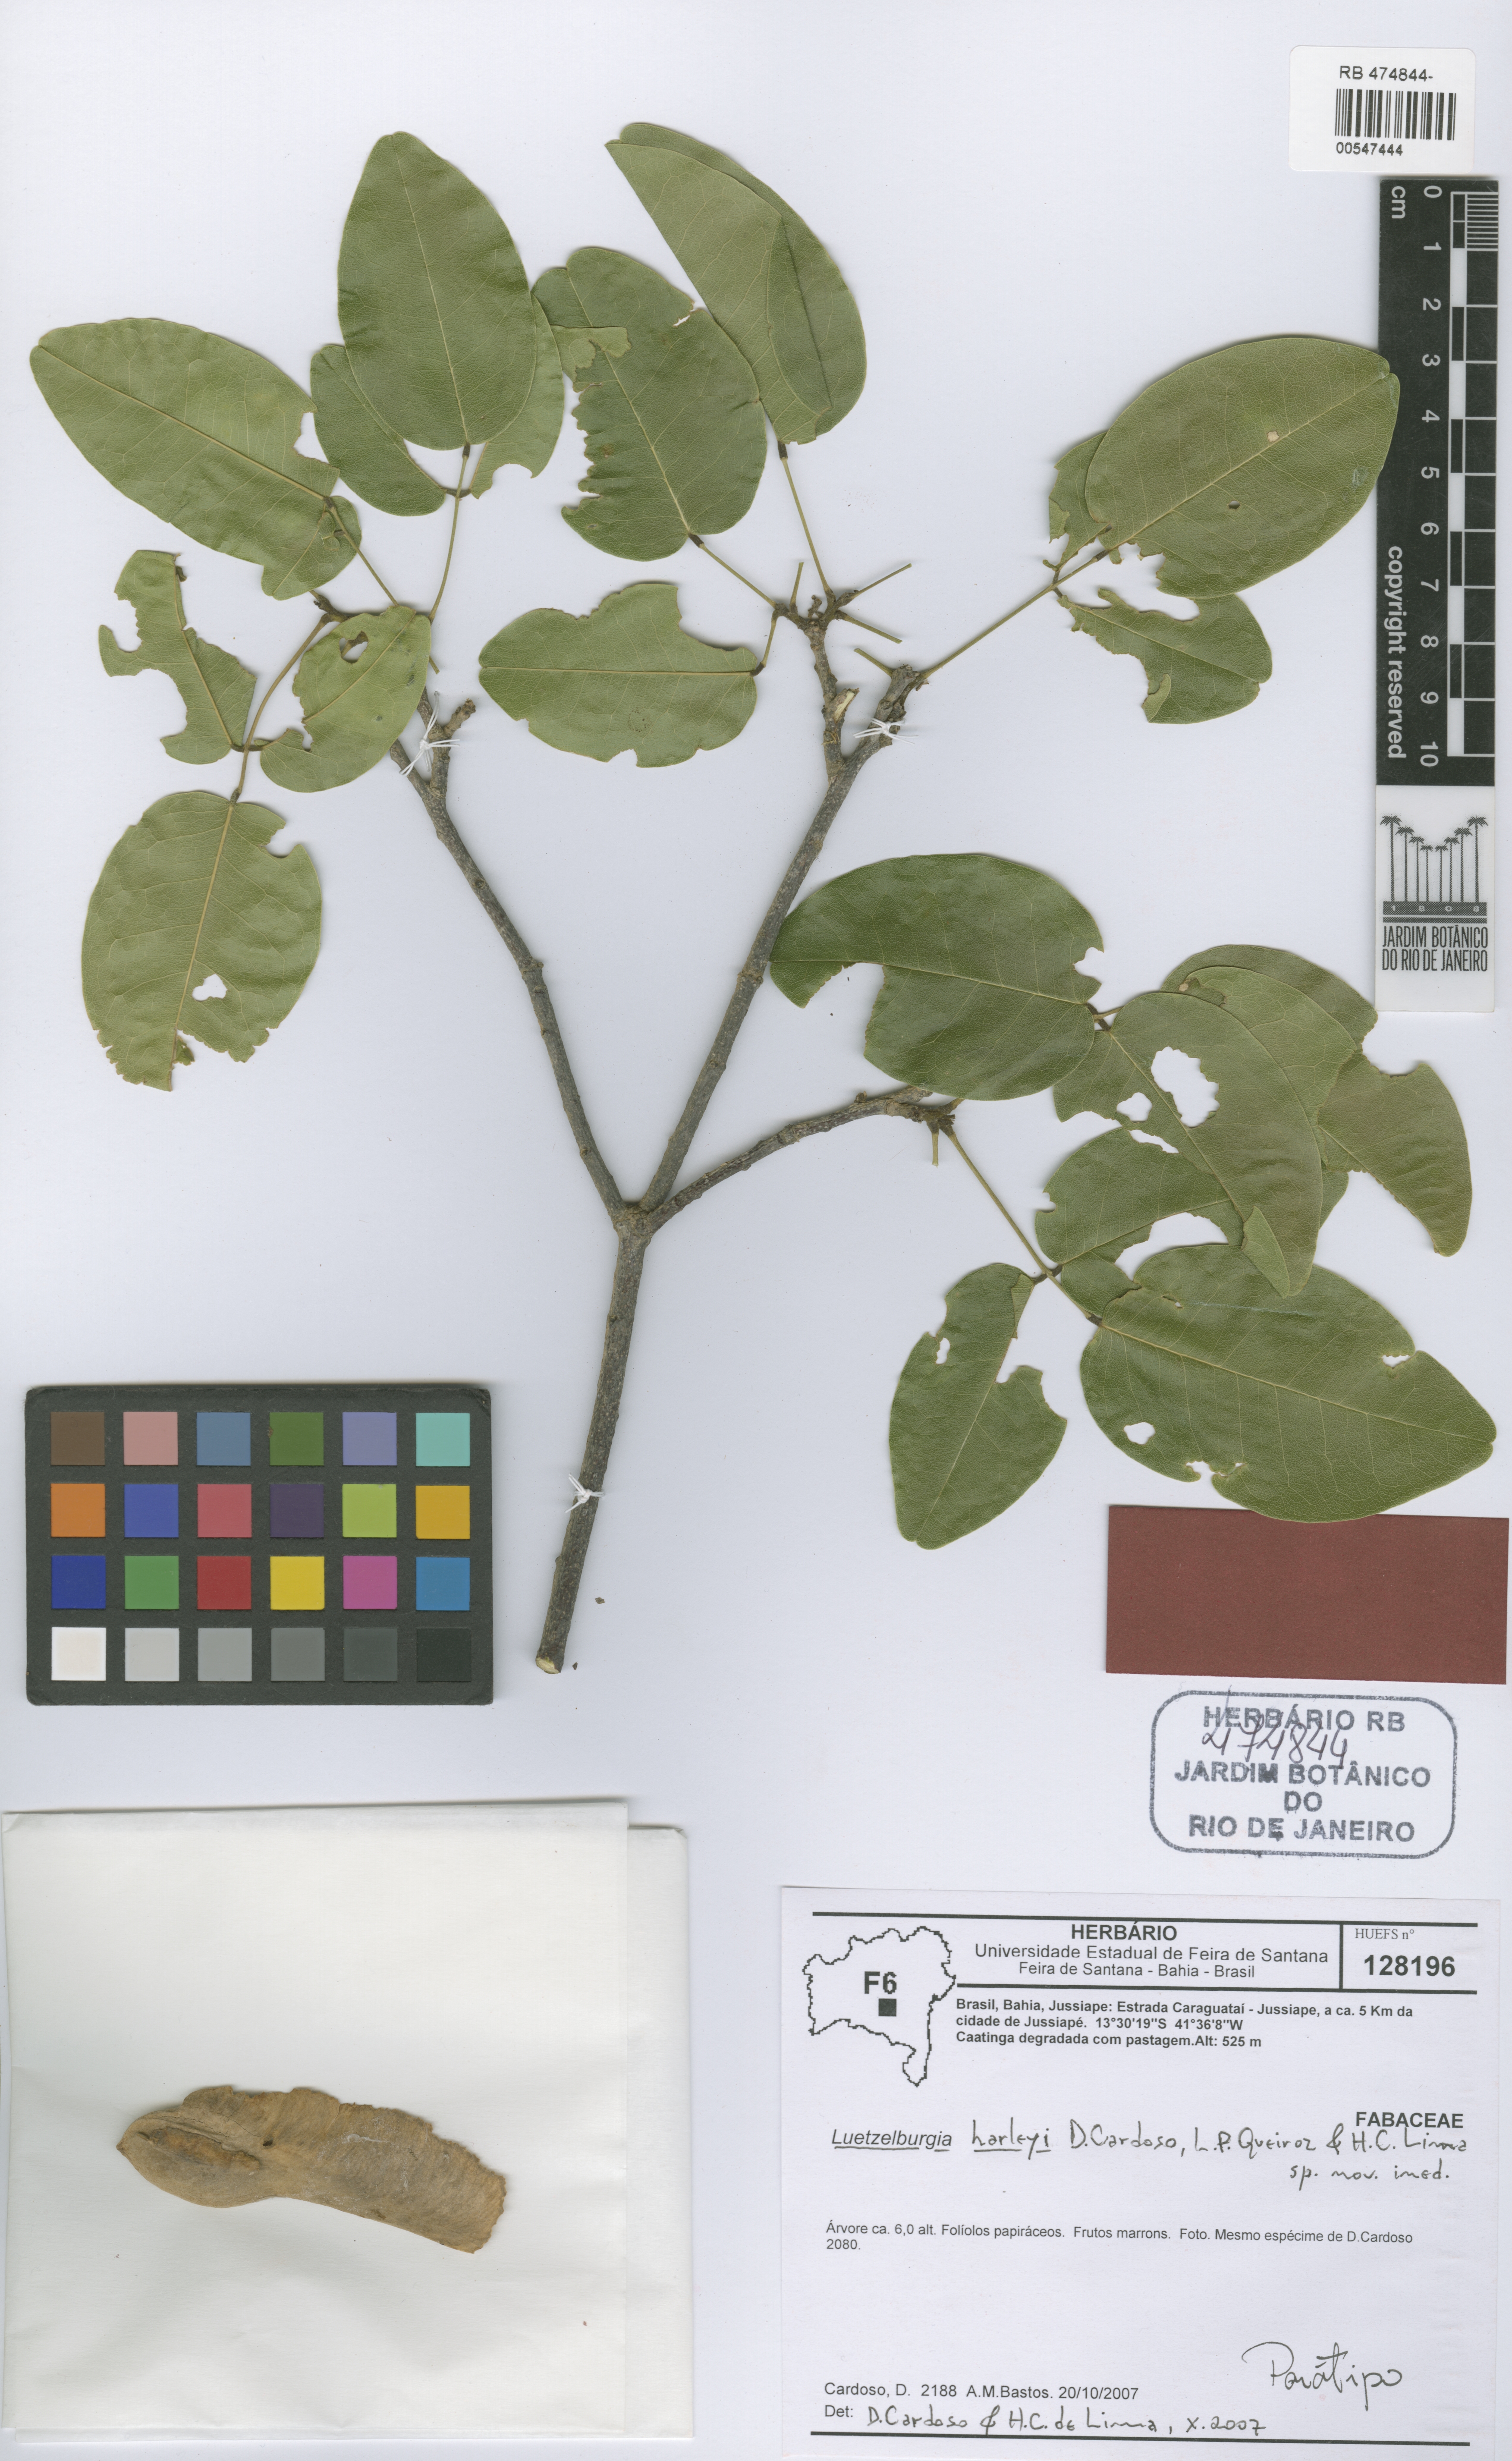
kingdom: Plantae
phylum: Tracheophyta
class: Magnoliopsida
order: Fabales
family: Fabaceae
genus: Luetzelburgia
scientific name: Luetzelburgia harleyi
